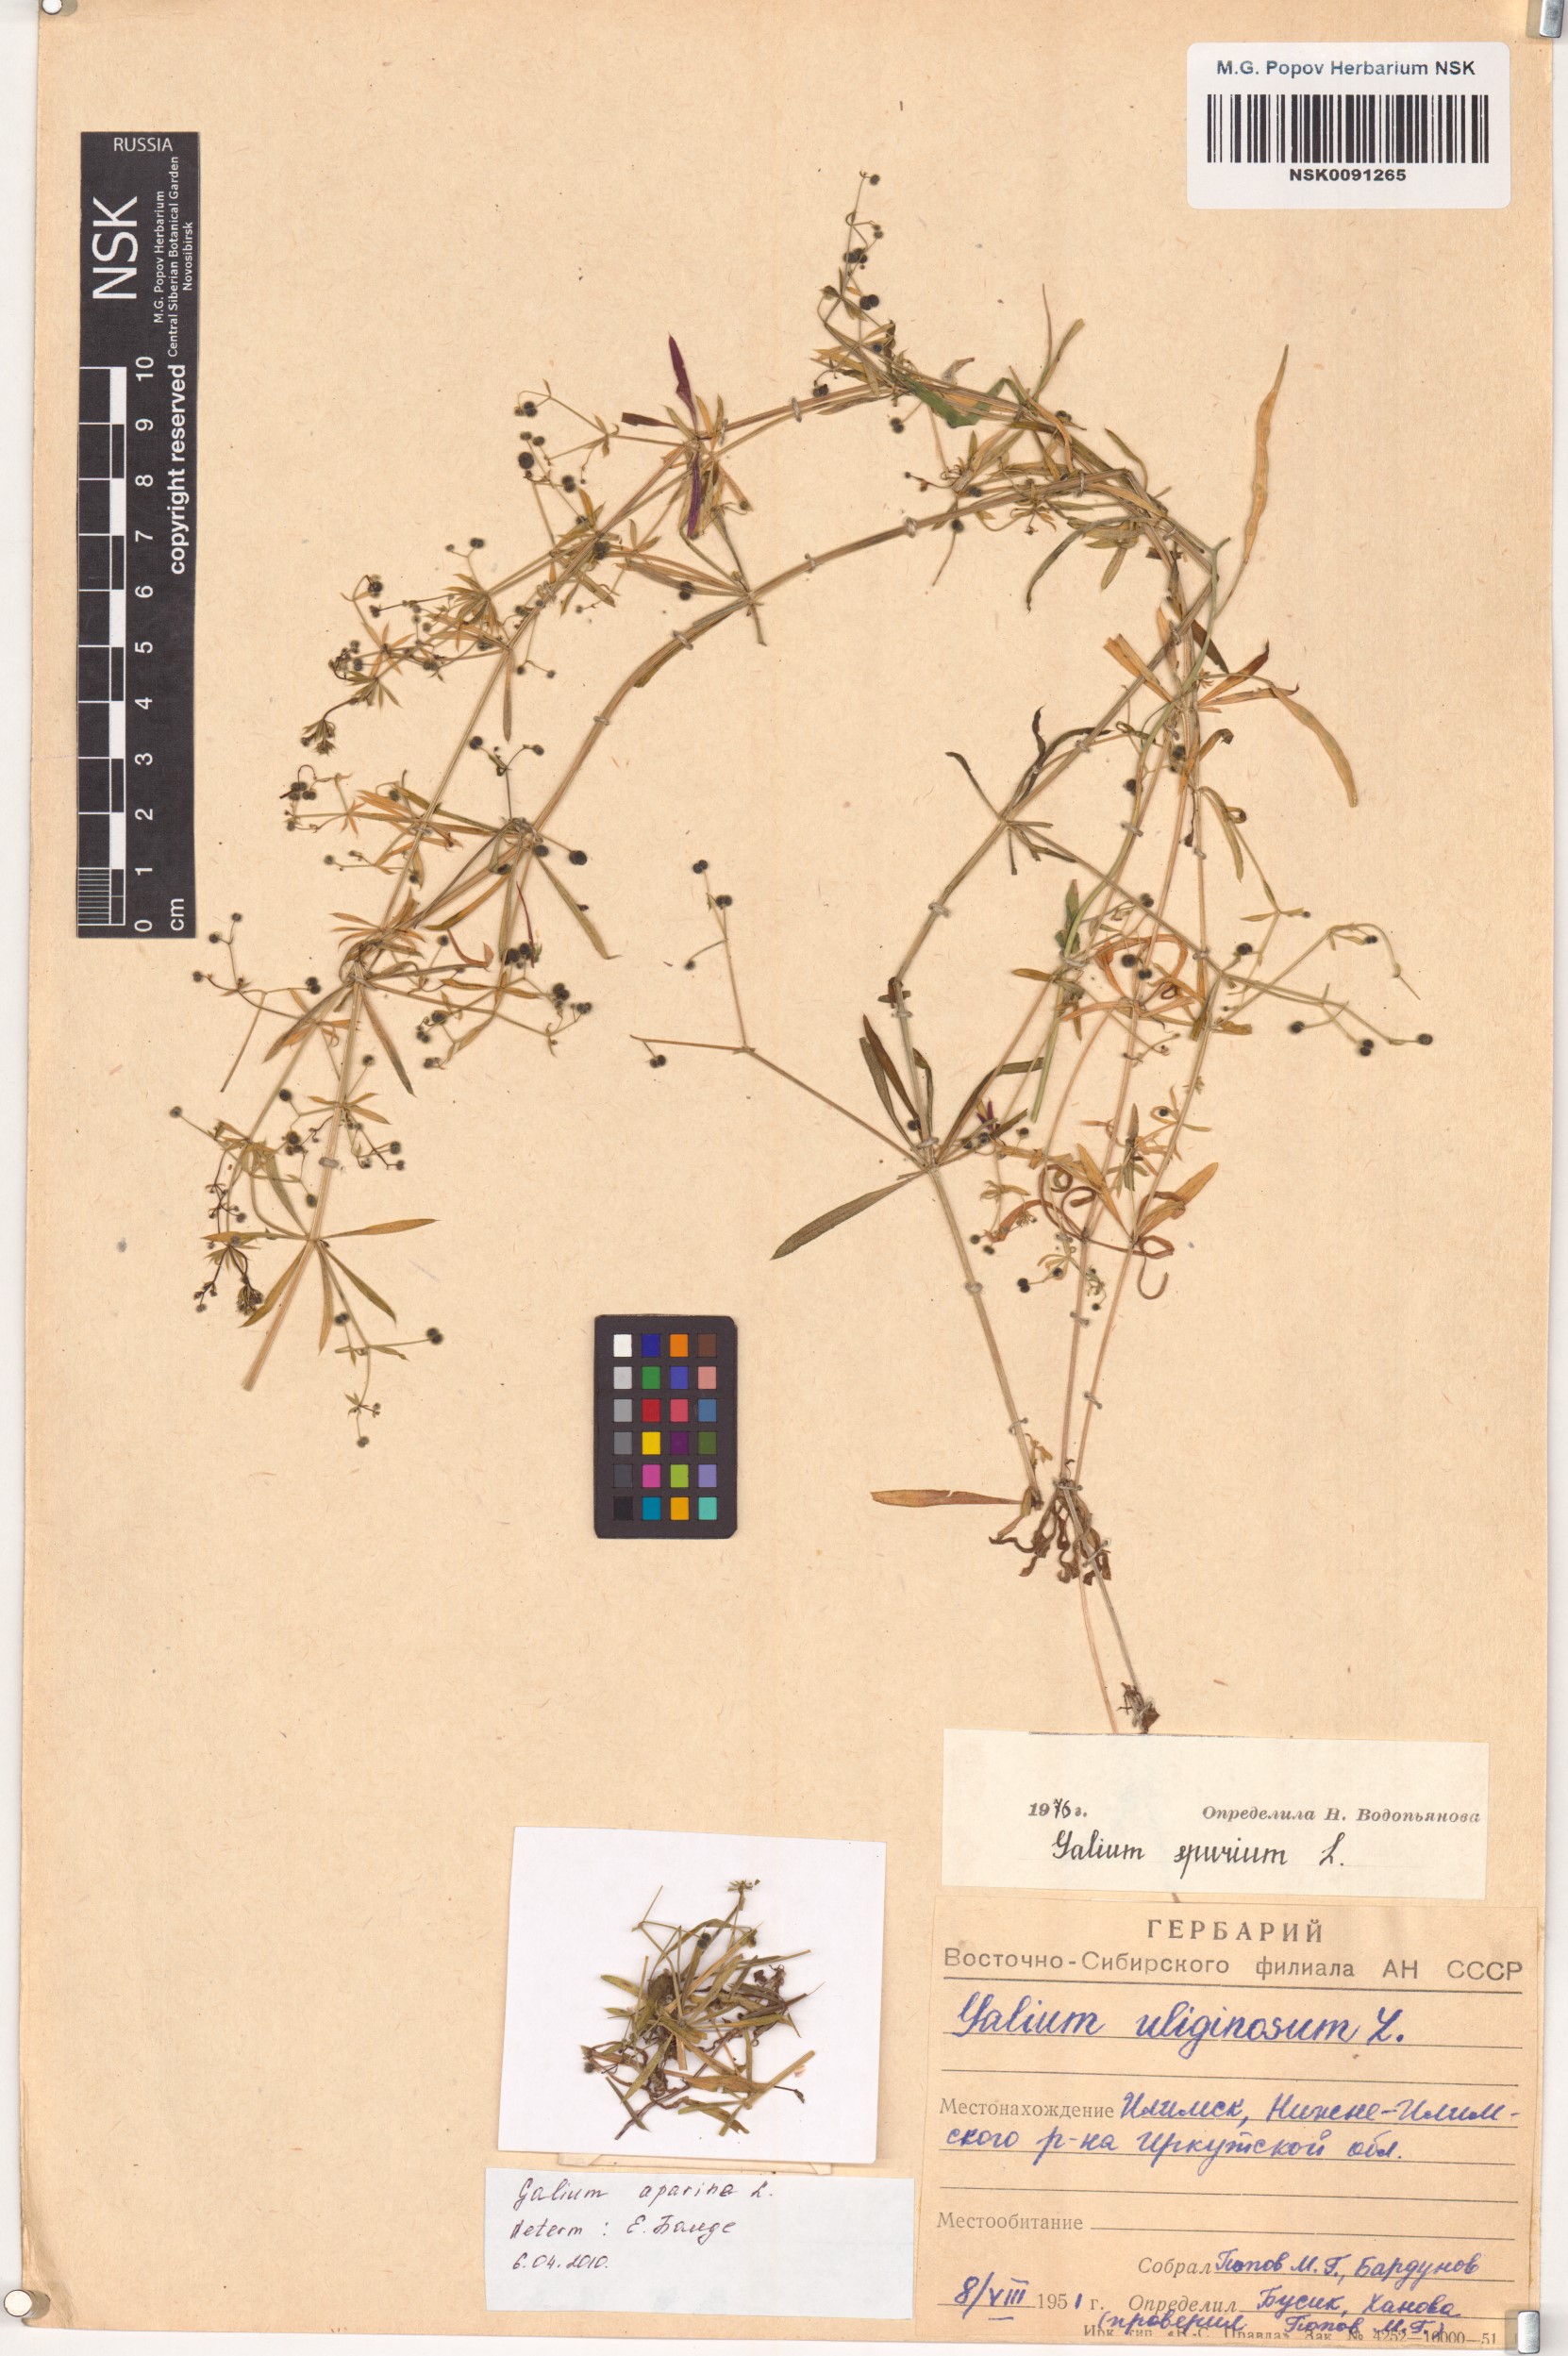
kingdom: Plantae
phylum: Tracheophyta
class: Magnoliopsida
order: Gentianales
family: Rubiaceae
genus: Galium
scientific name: Galium aparine
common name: Cleavers
